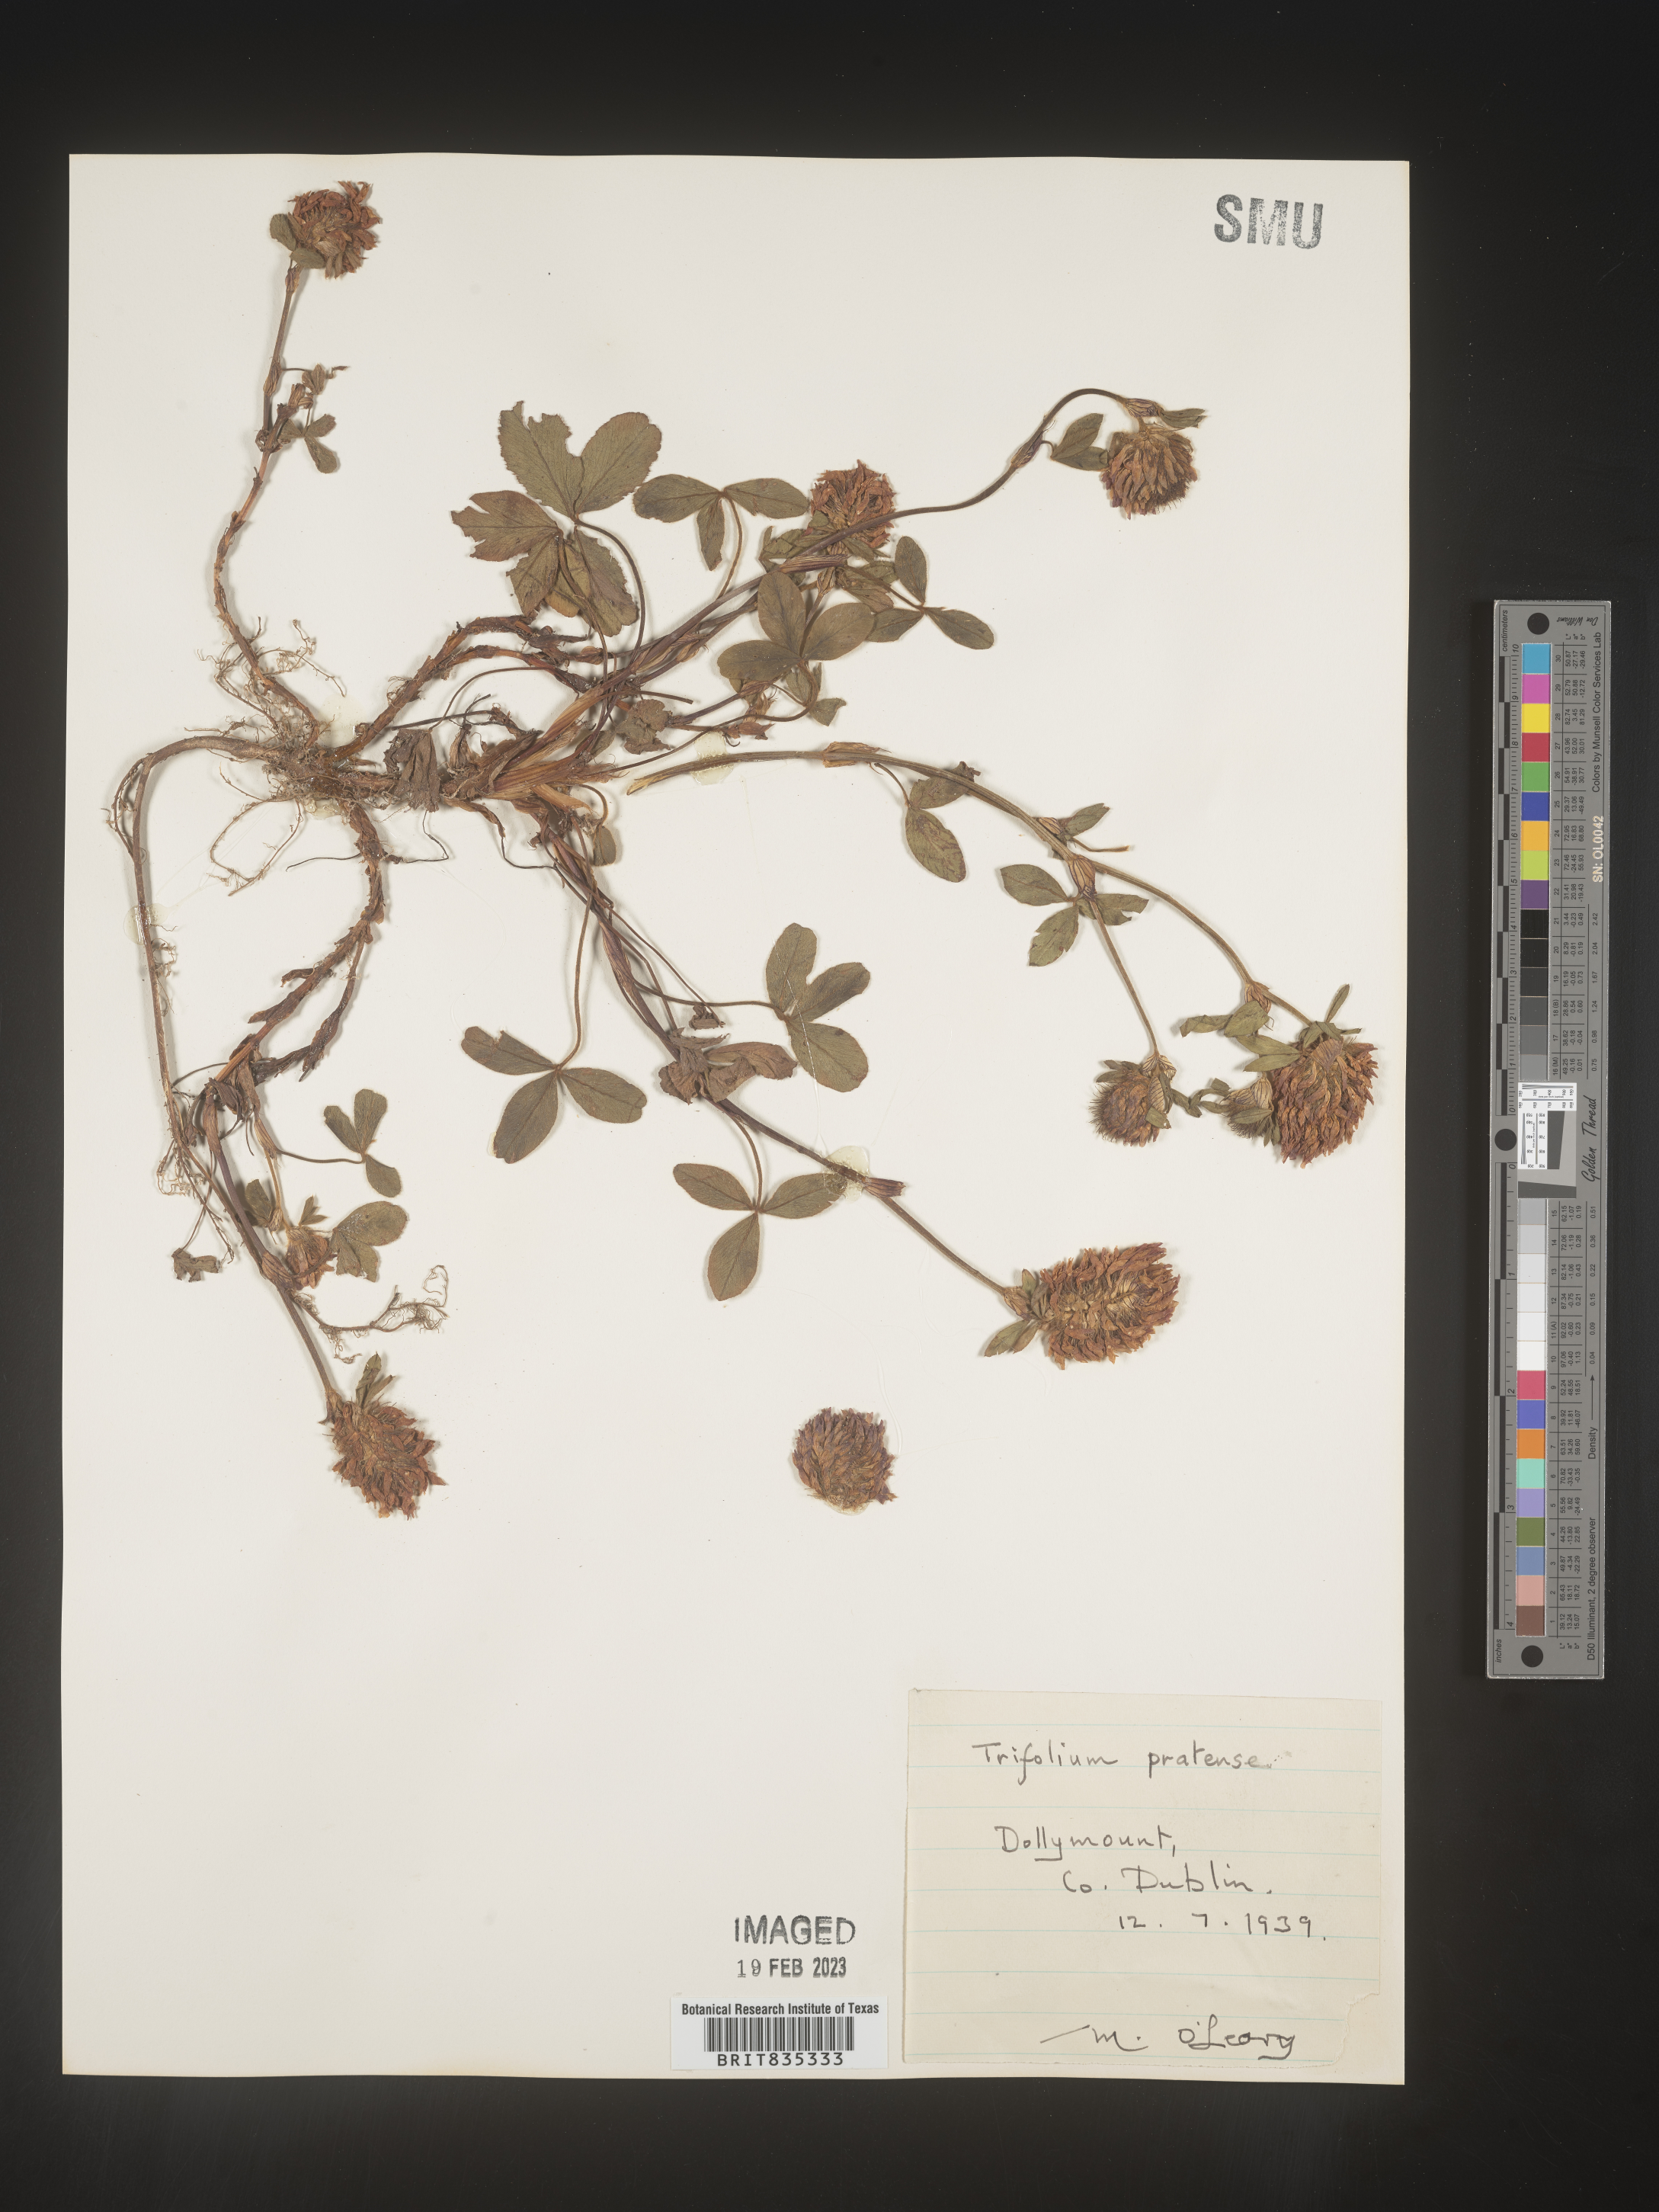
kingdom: Plantae
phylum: Tracheophyta
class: Magnoliopsida
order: Fabales
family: Fabaceae
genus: Trifolium
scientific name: Trifolium
